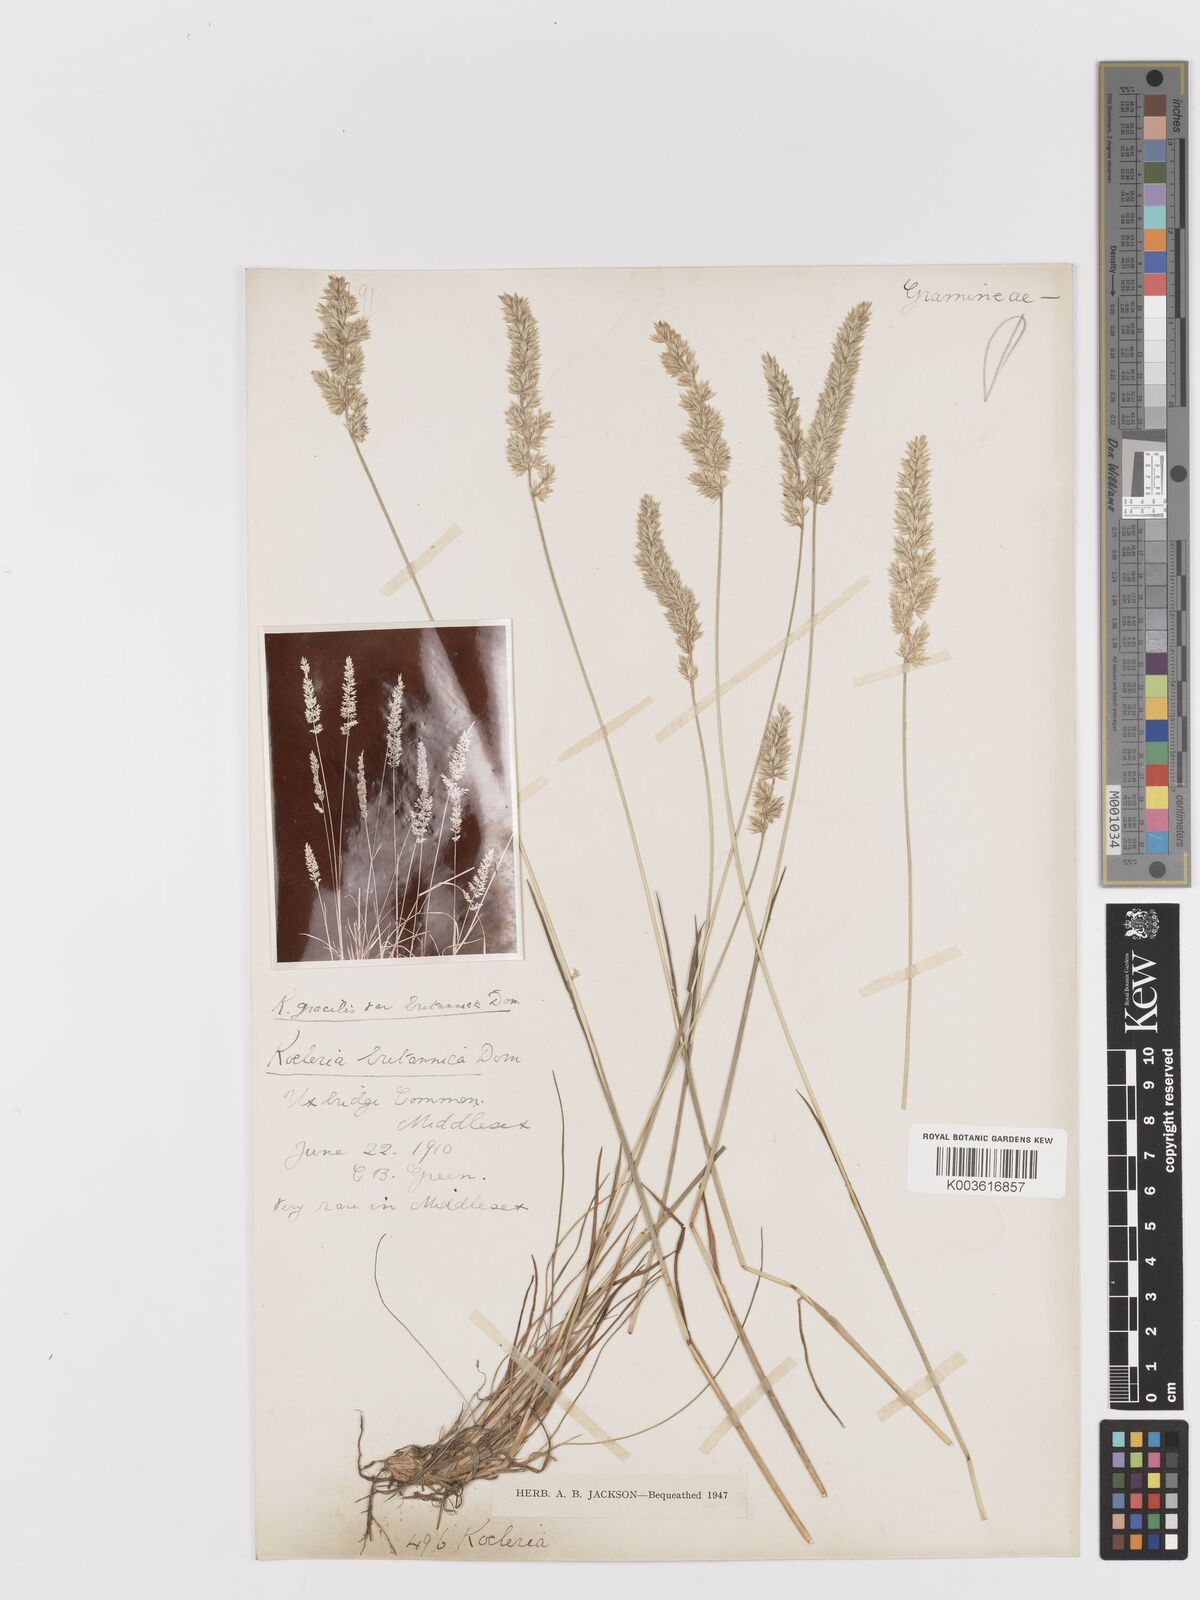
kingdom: Plantae
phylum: Tracheophyta
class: Liliopsida
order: Poales
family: Poaceae
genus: Koeleria
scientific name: Koeleria macrantha
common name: Crested hair-grass
